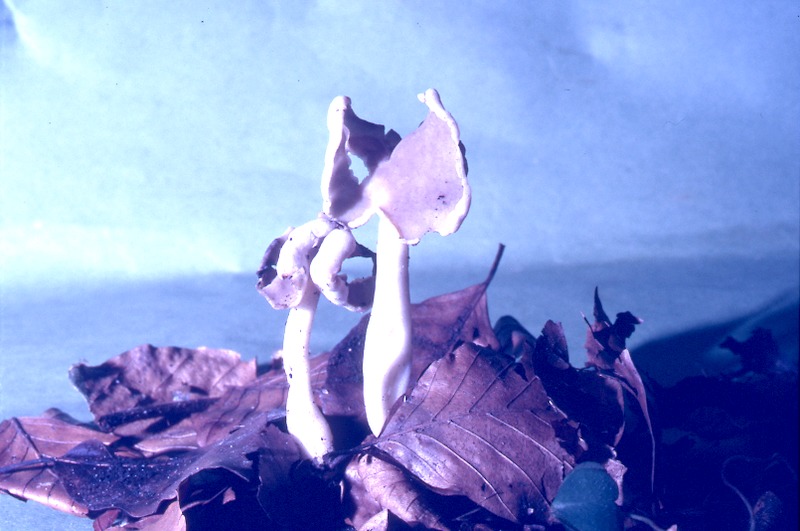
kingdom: Fungi
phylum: Ascomycota
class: Pezizomycetes
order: Pezizales
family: Helvellaceae
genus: Helvella
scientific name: Helvella elastica
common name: Elastic saddle
